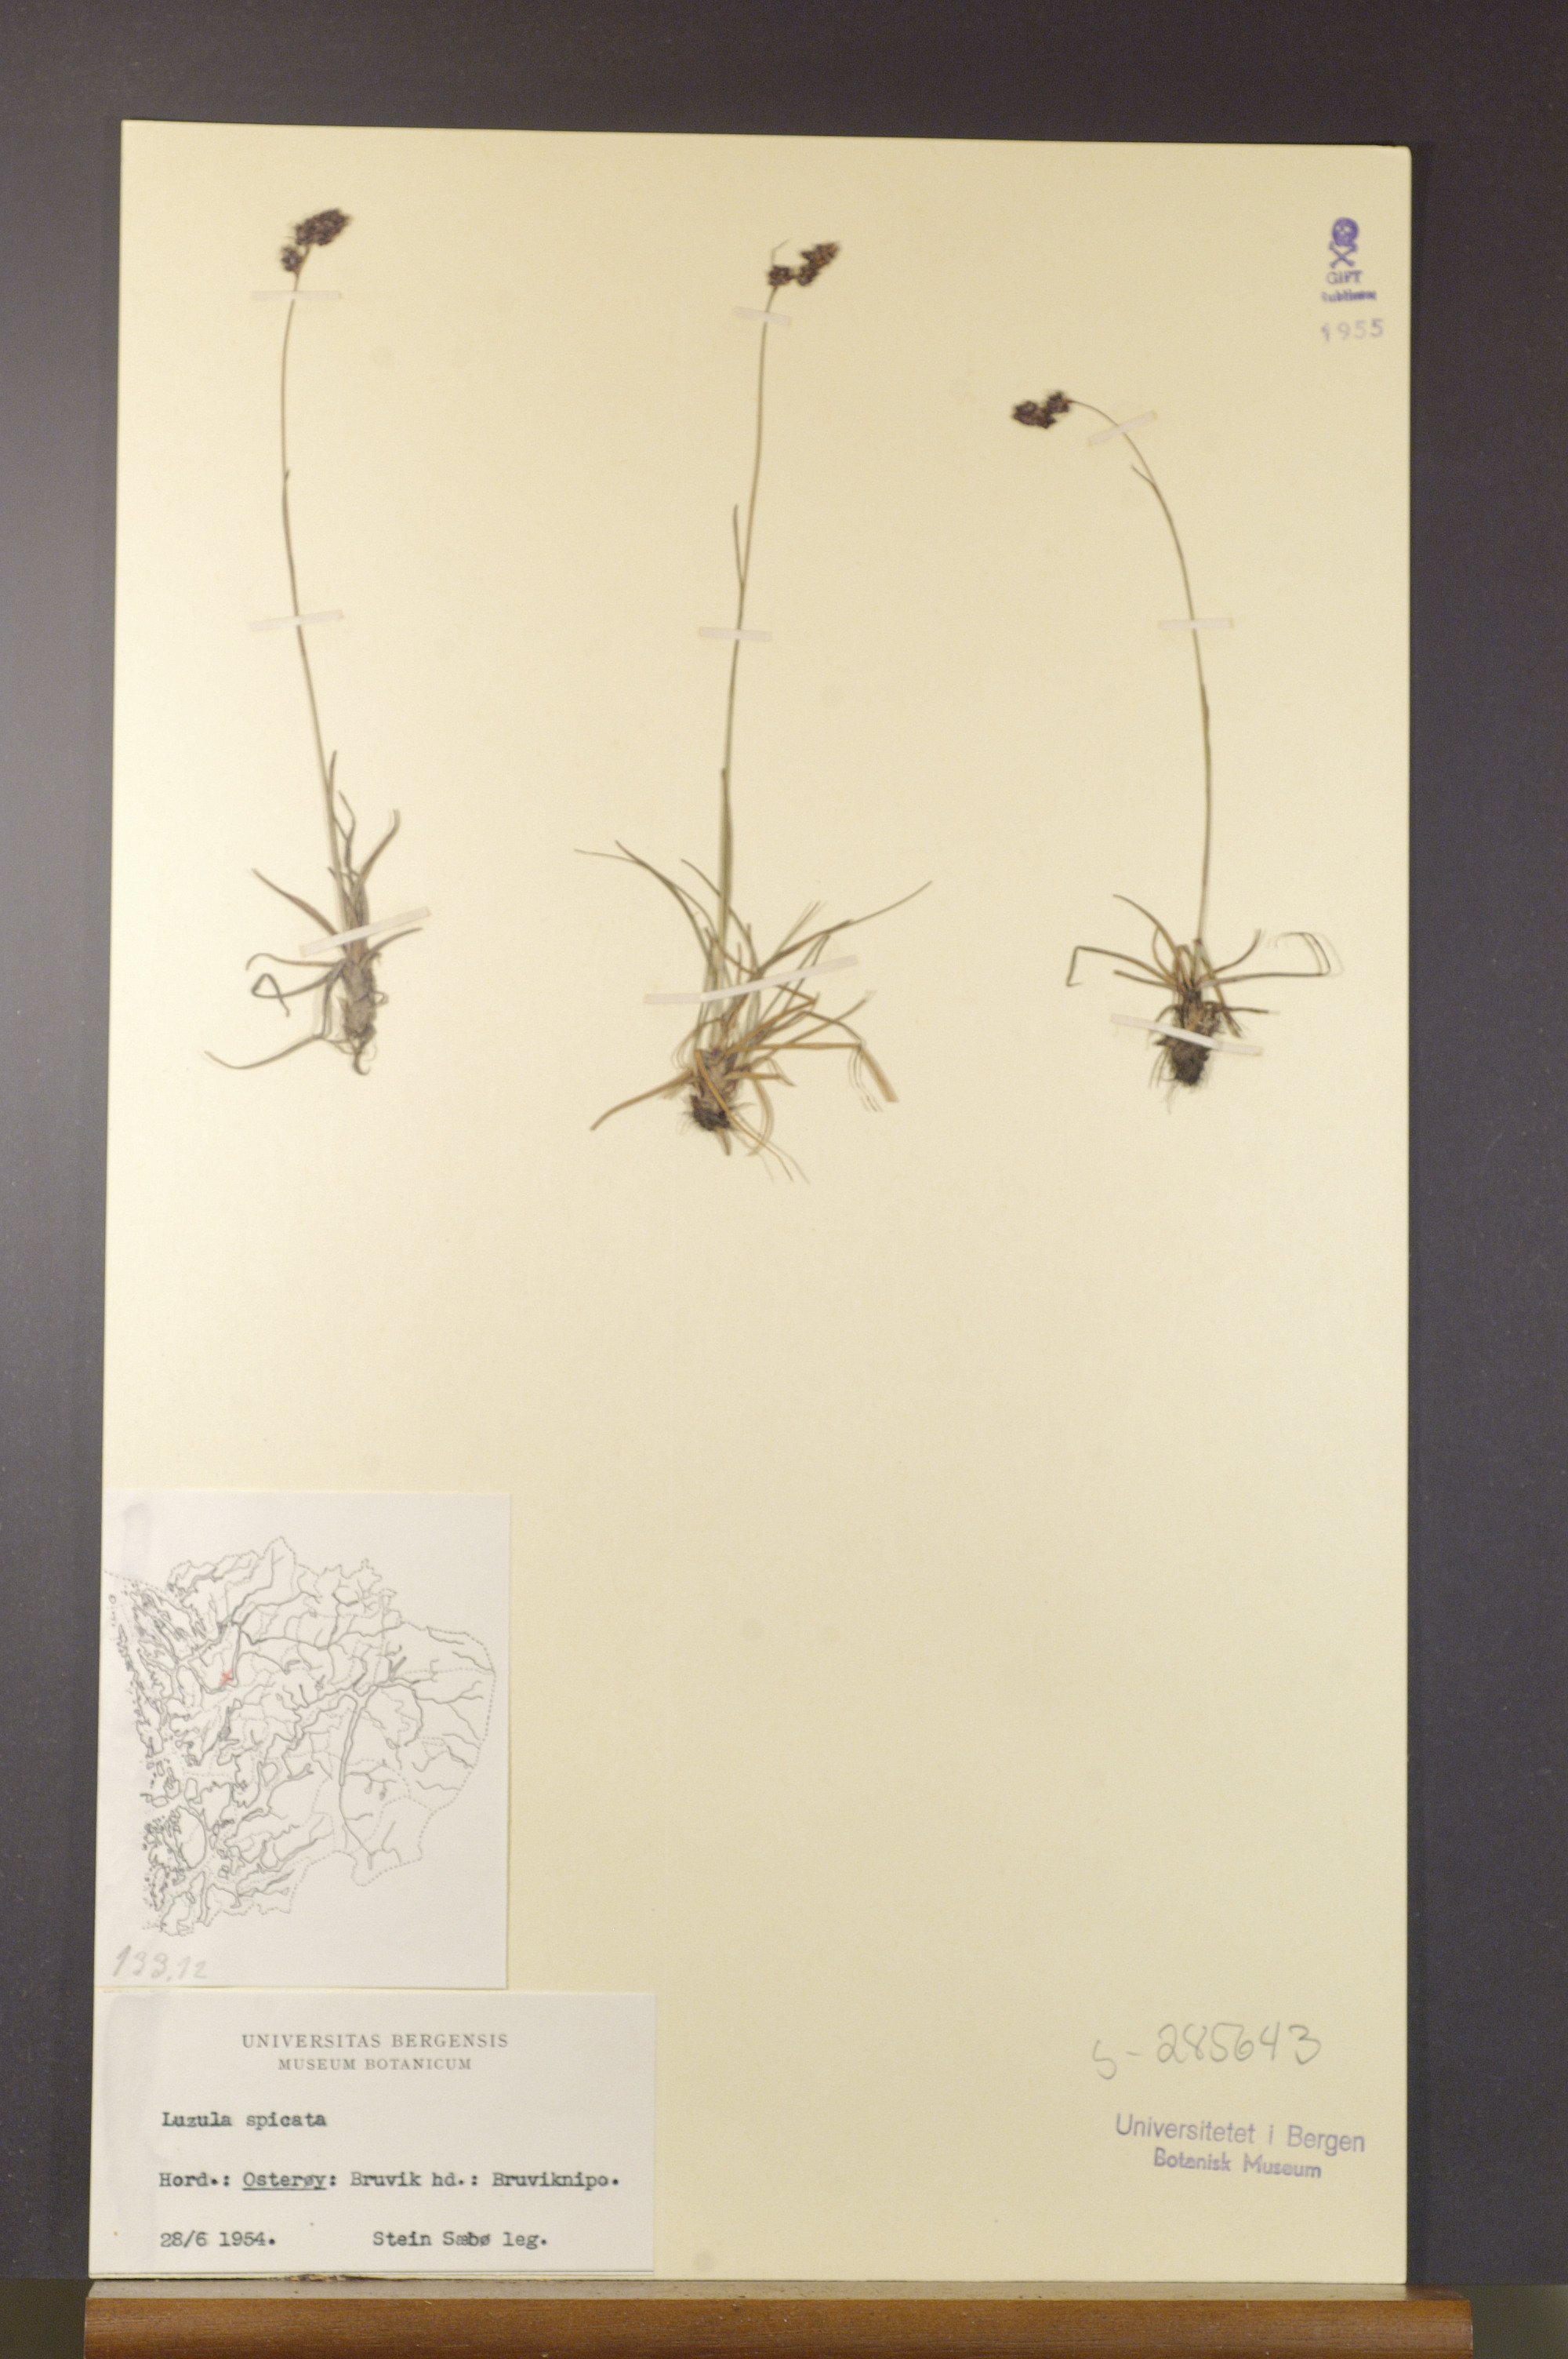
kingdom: Plantae
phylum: Tracheophyta
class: Liliopsida
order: Poales
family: Juncaceae
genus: Luzula
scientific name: Luzula spicata
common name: Spiked wood-rush
